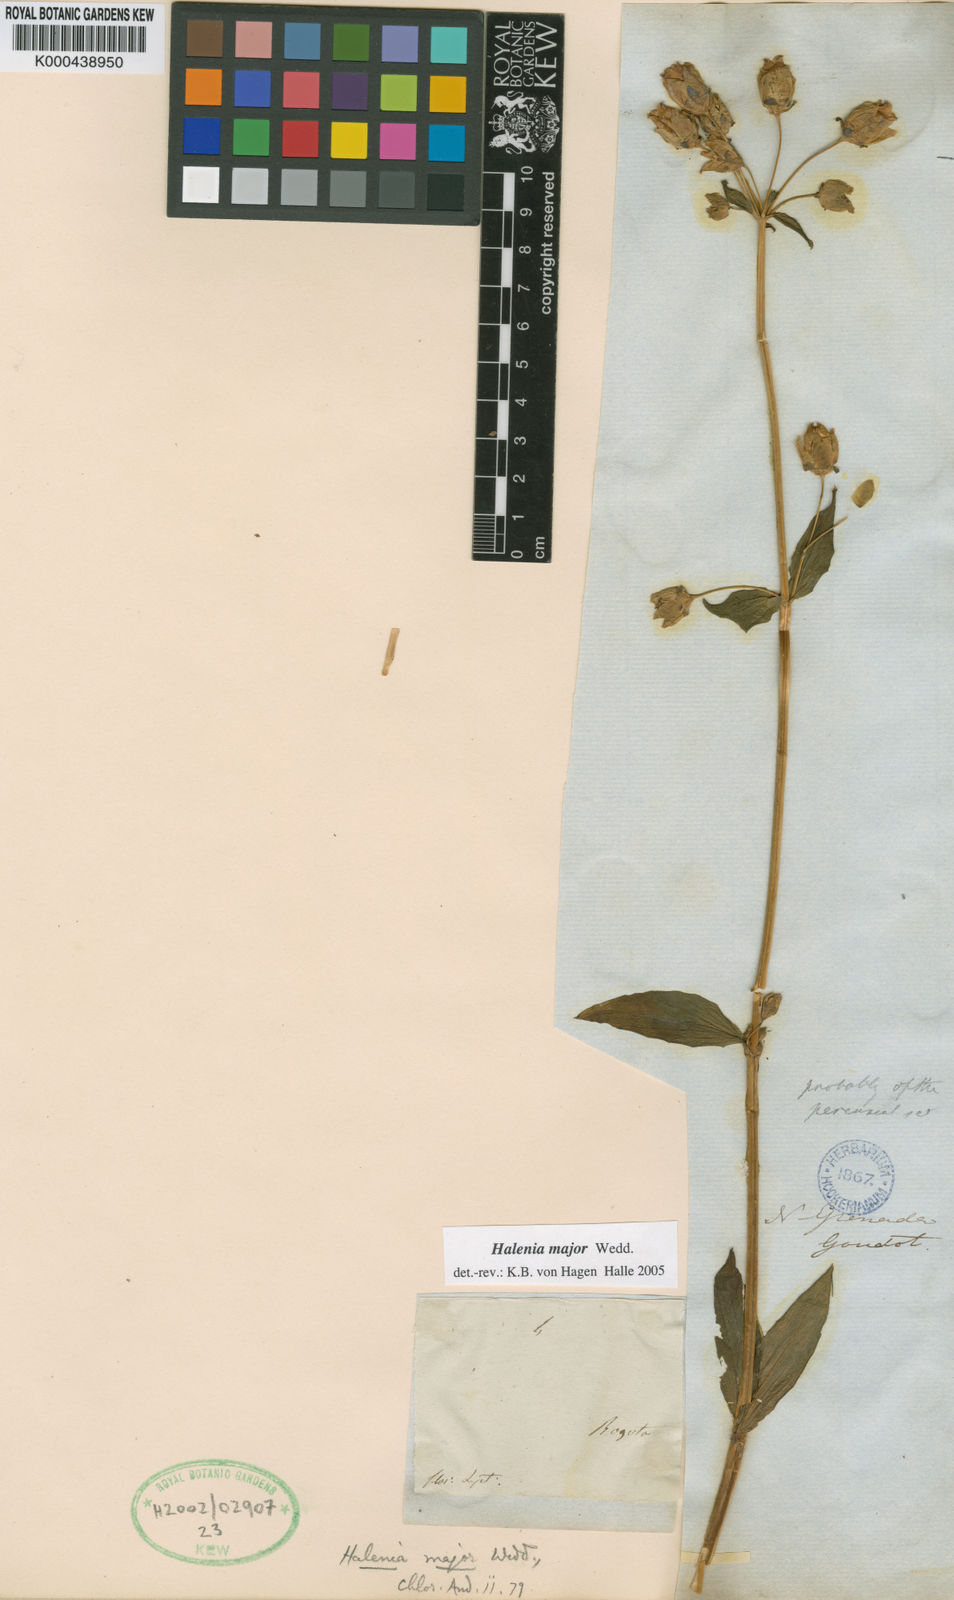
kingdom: Plantae
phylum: Tracheophyta
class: Magnoliopsida
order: Gentianales
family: Gentianaceae
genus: Halenia
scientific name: Halenia major
